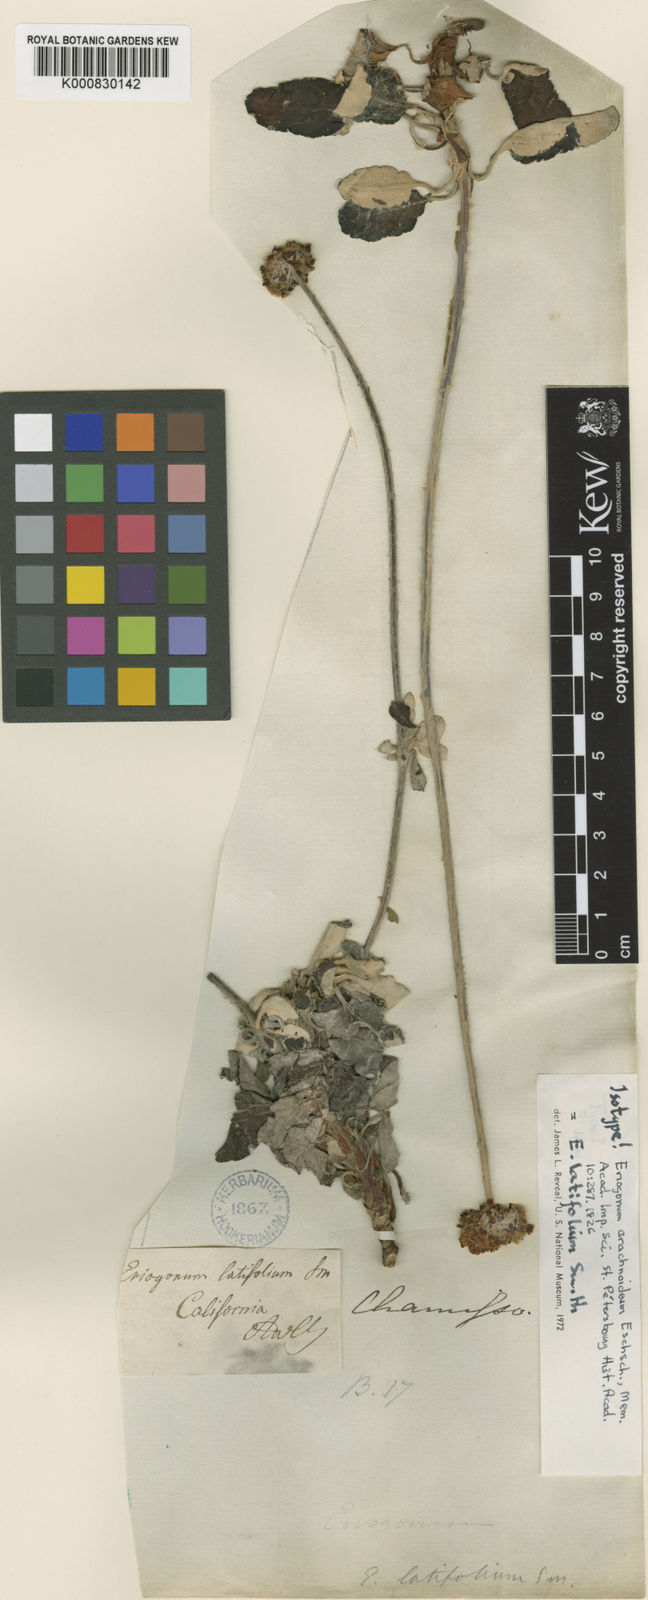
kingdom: Plantae
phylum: Tracheophyta
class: Magnoliopsida
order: Caryophyllales
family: Polygonaceae
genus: Eriogonum
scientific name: Eriogonum latifolium
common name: Seaside wild buckwheat
